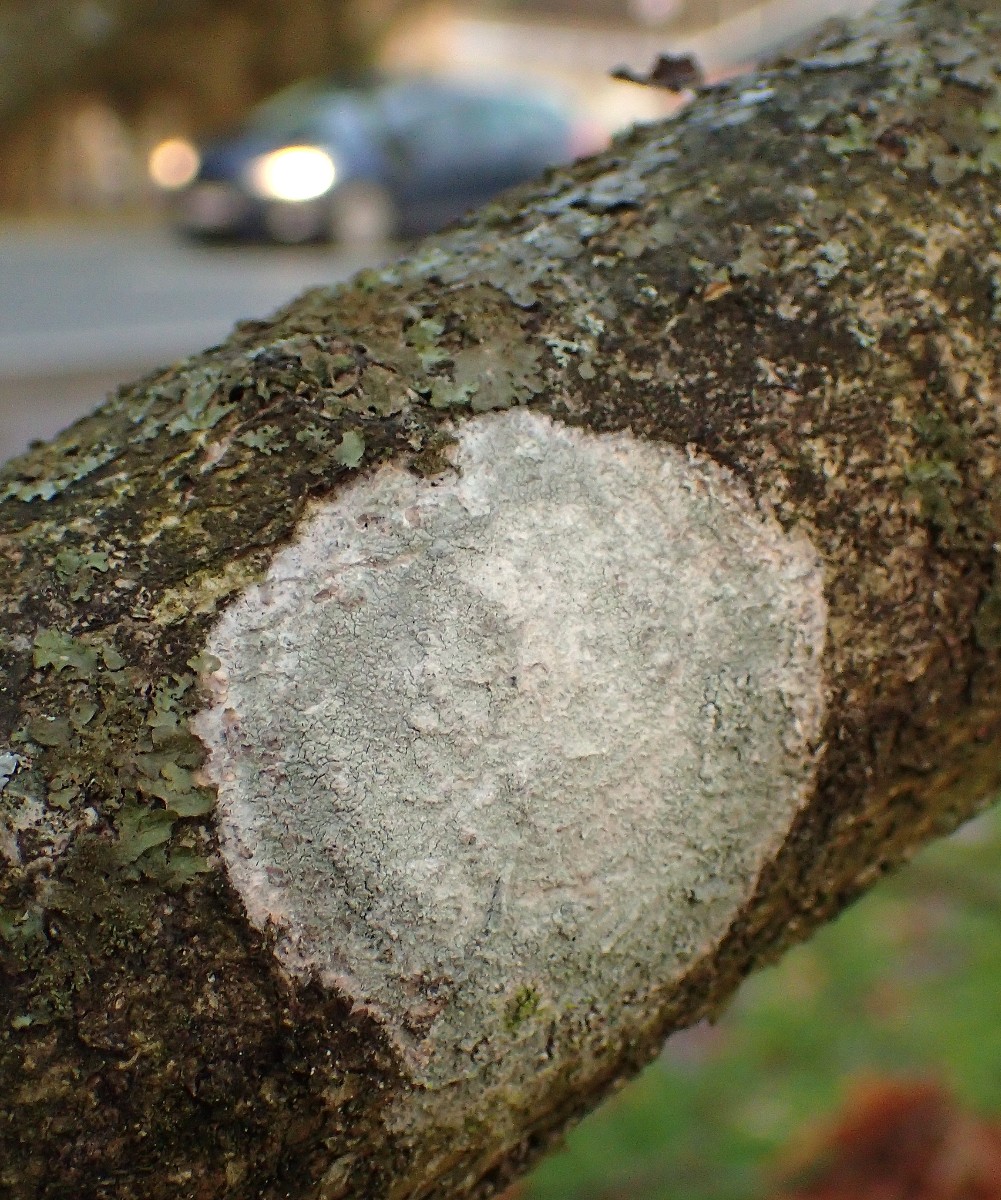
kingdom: Fungi
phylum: Ascomycota
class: Lecanoromycetes
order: Ostropales
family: Phlyctidaceae
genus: Phlyctis
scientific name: Phlyctis argena
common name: almindelig sølvlav
